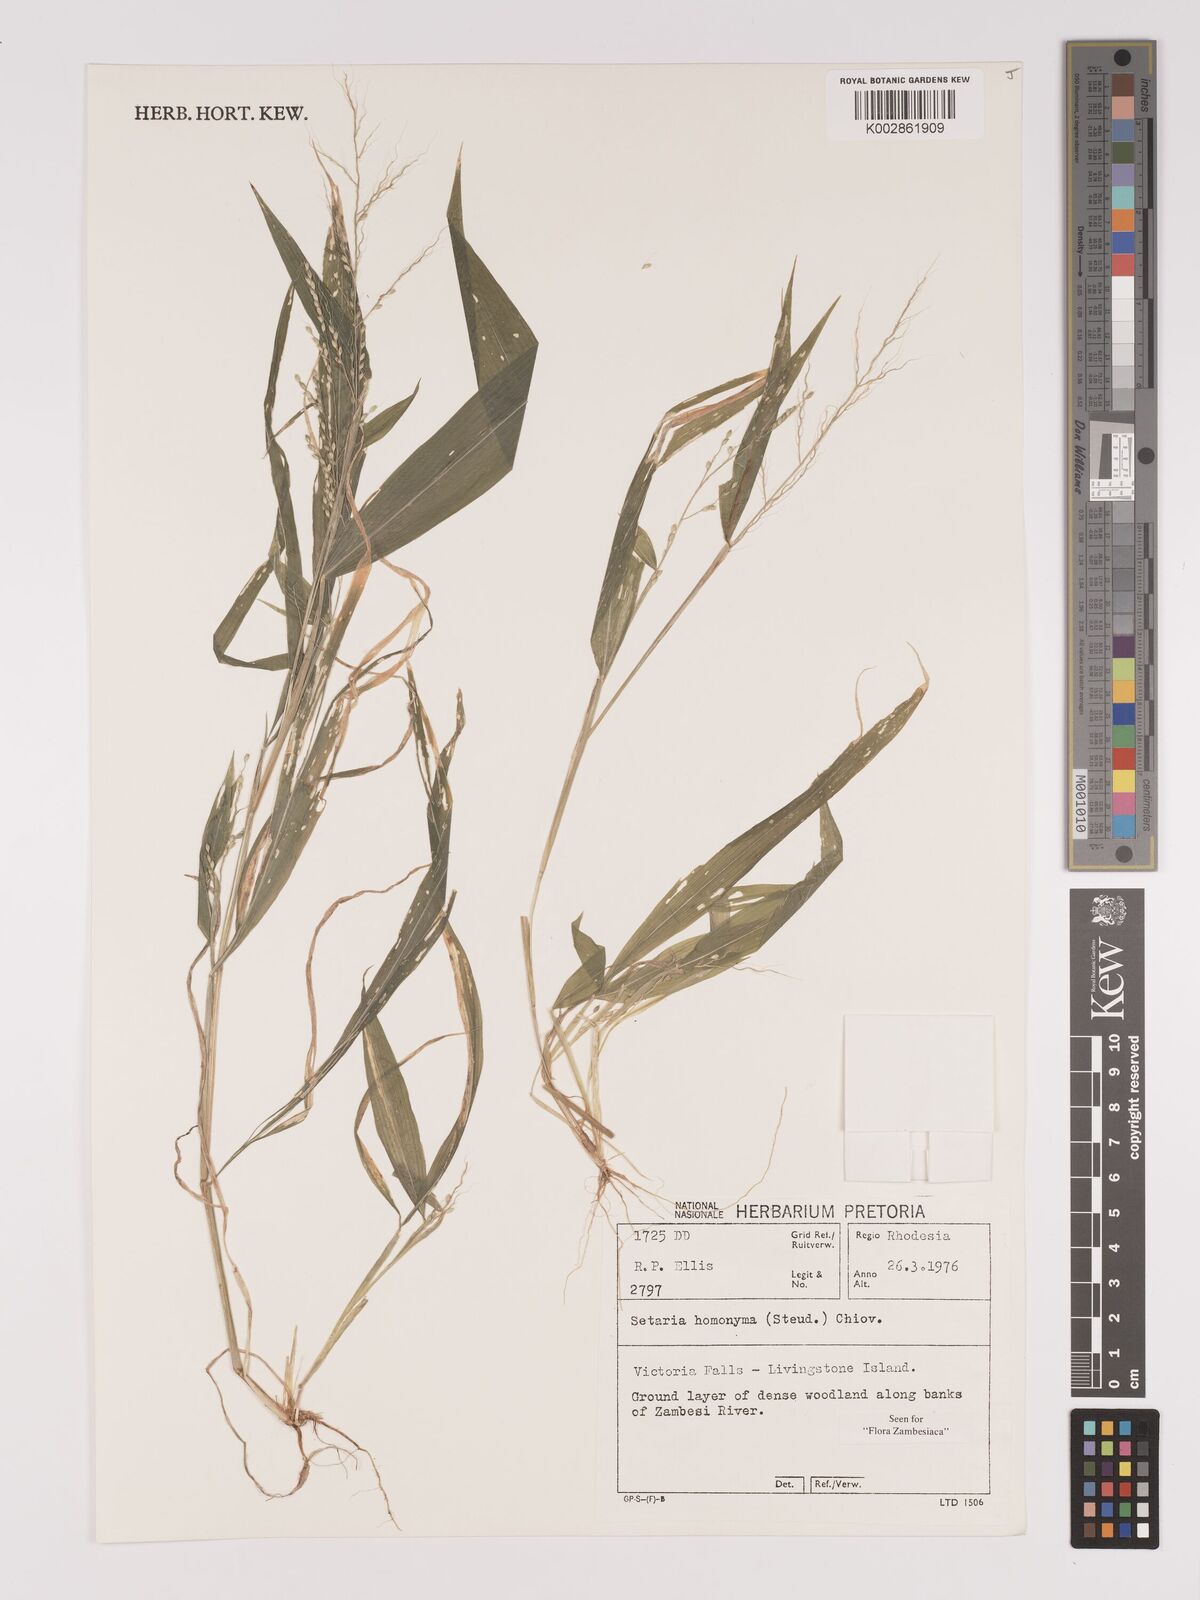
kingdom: Plantae
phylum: Tracheophyta
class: Liliopsida
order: Poales
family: Poaceae
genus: Setaria
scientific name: Setaria homonyma
